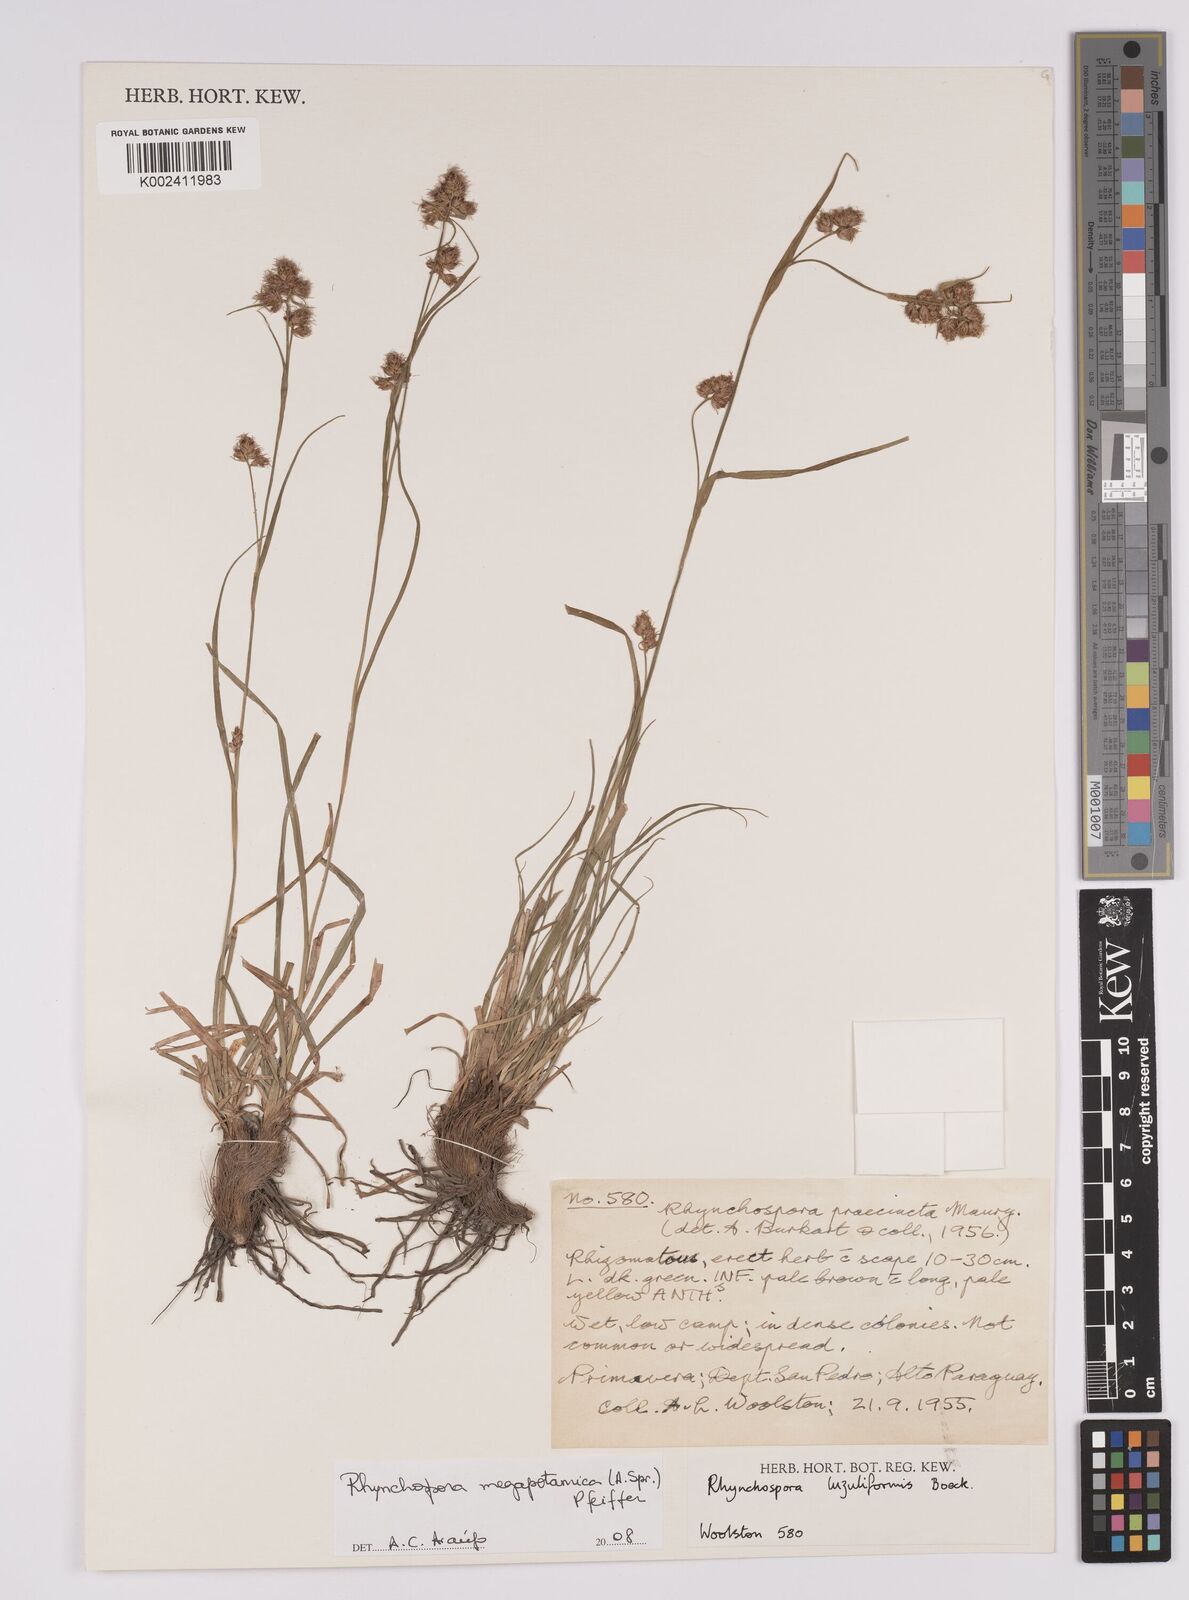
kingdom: Plantae
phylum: Tracheophyta
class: Liliopsida
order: Poales
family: Cyperaceae
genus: Rhynchospora
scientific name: Rhynchospora megalocarpa
